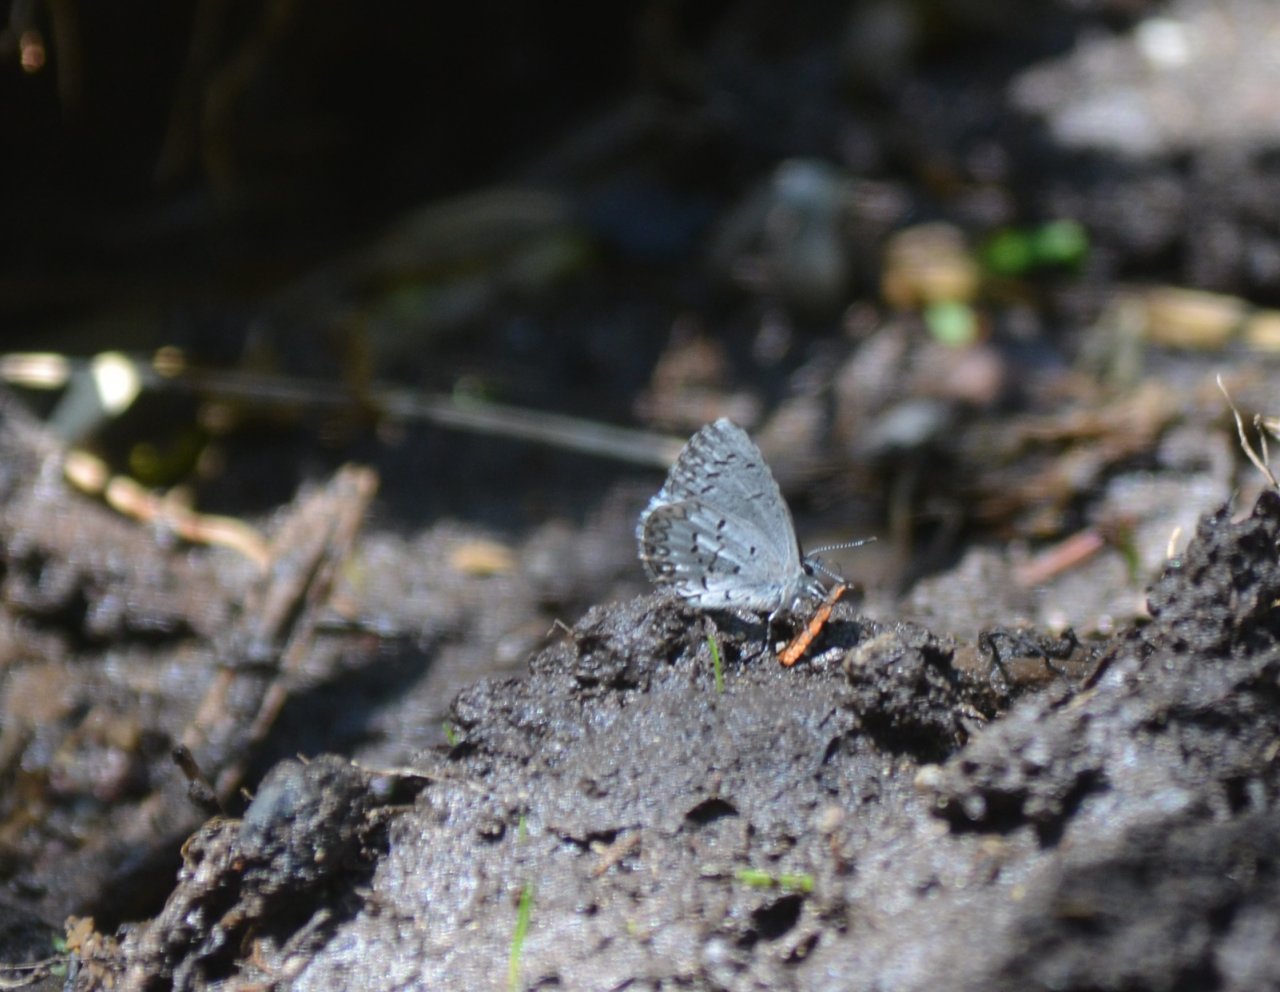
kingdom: Animalia
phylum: Arthropoda
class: Insecta
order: Lepidoptera
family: Lycaenidae
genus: Celastrina
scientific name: Celastrina lucia
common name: Northern Spring Azure
